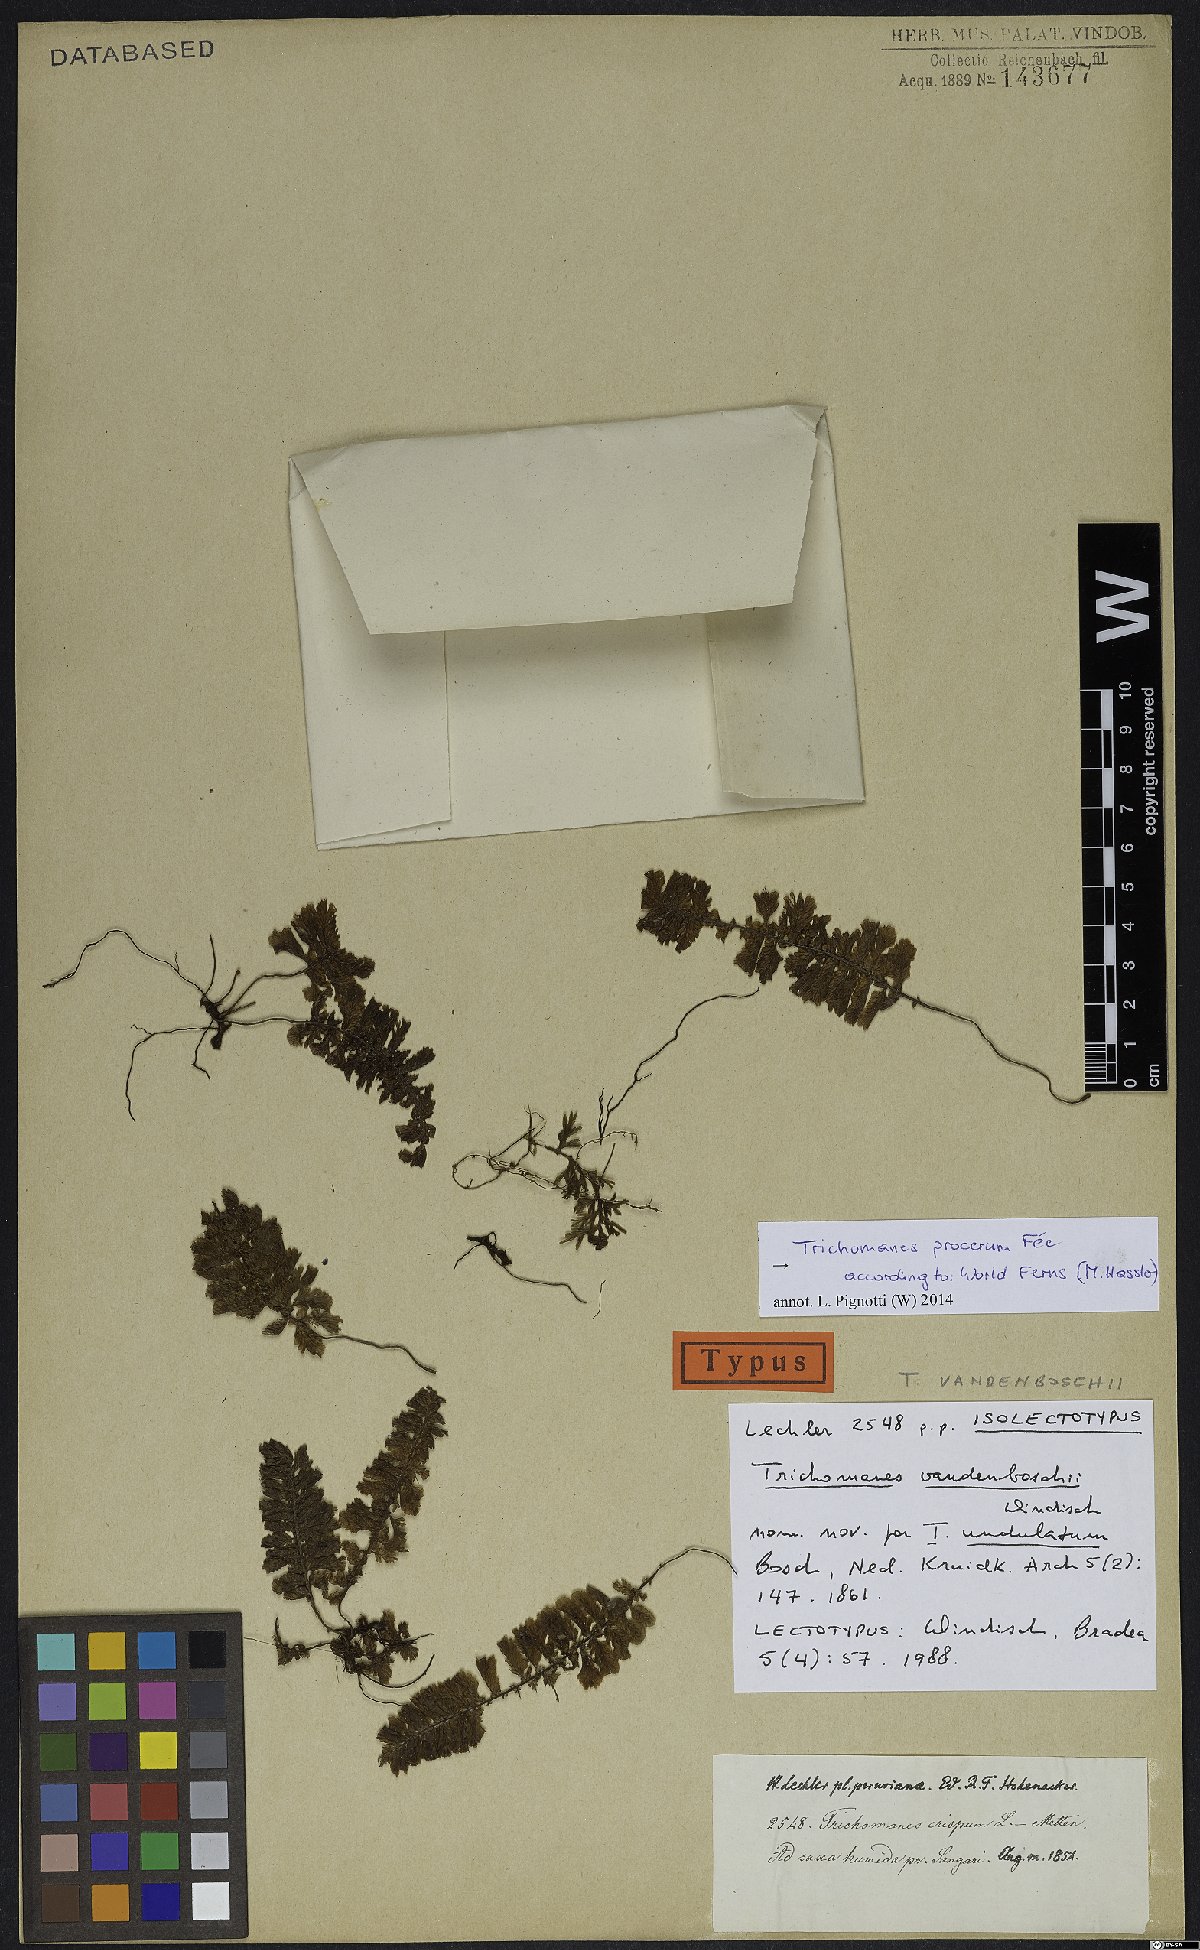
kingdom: Plantae
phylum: Tracheophyta
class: Polypodiopsida
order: Hymenophyllales
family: Hymenophyllaceae
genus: Trichomanes
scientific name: Trichomanes procerum
